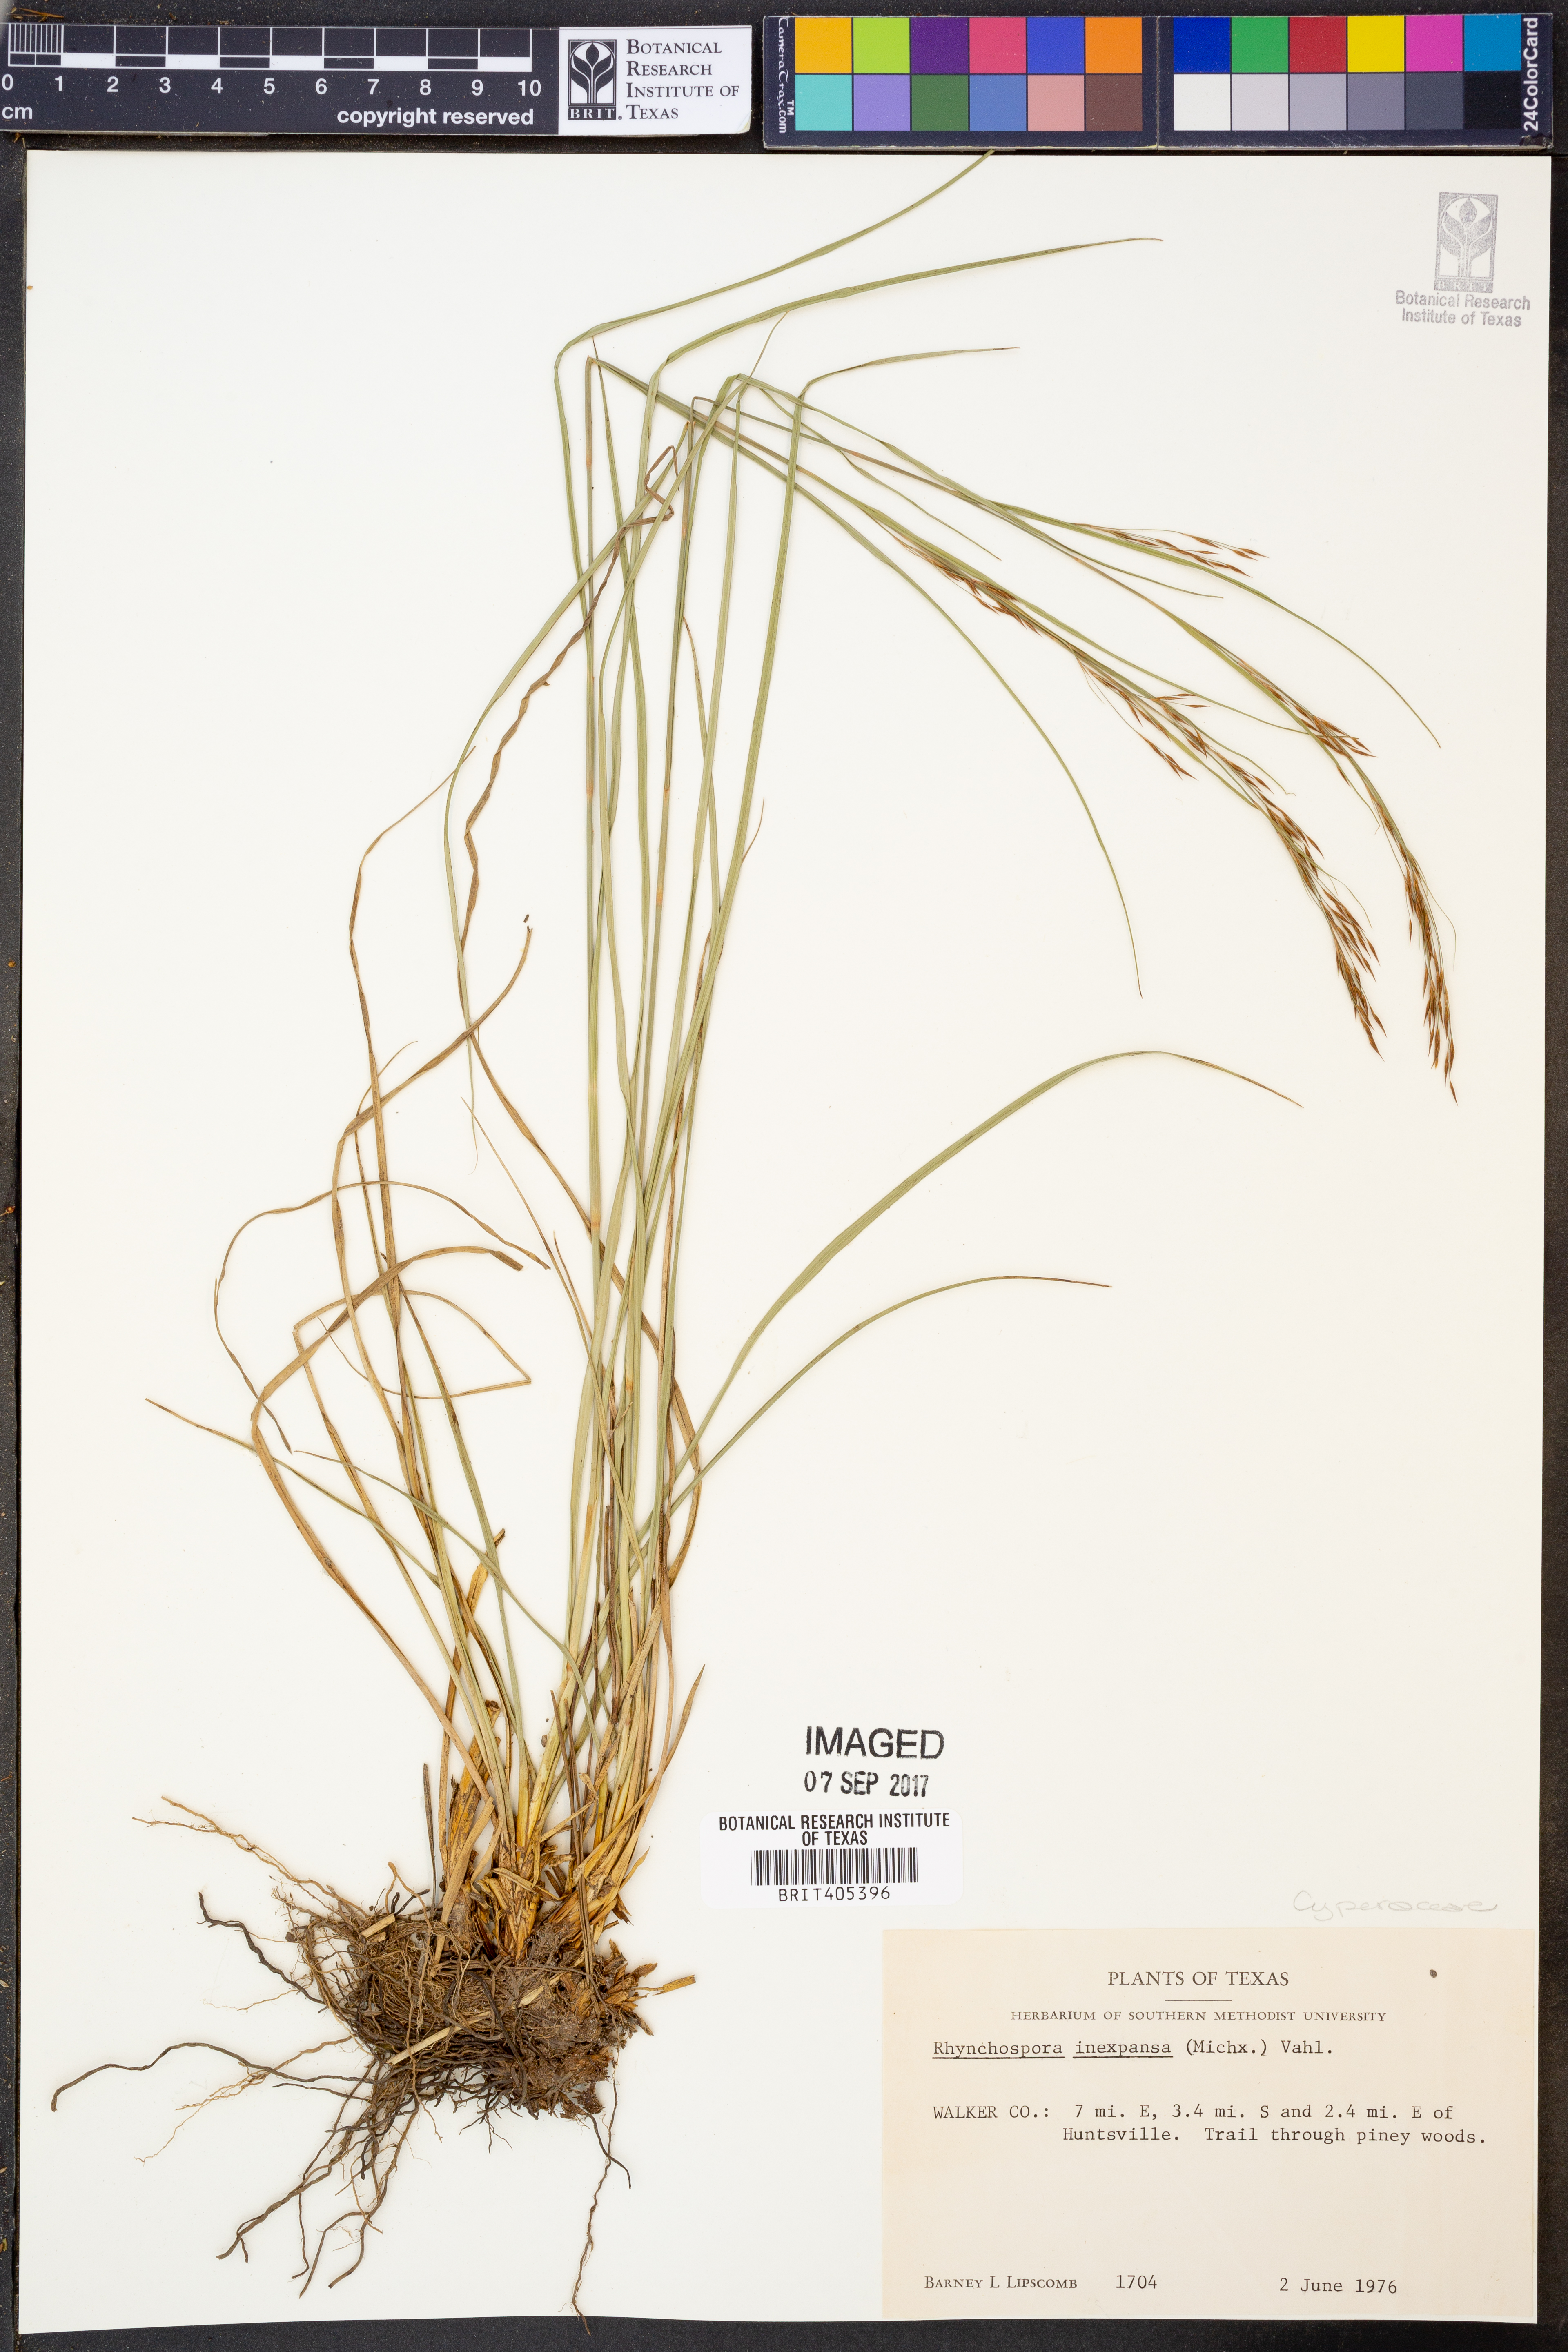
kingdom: Plantae
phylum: Tracheophyta
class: Liliopsida
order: Poales
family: Cyperaceae
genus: Rhynchospora
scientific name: Rhynchospora inexpansa
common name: Nodding beaksedge
